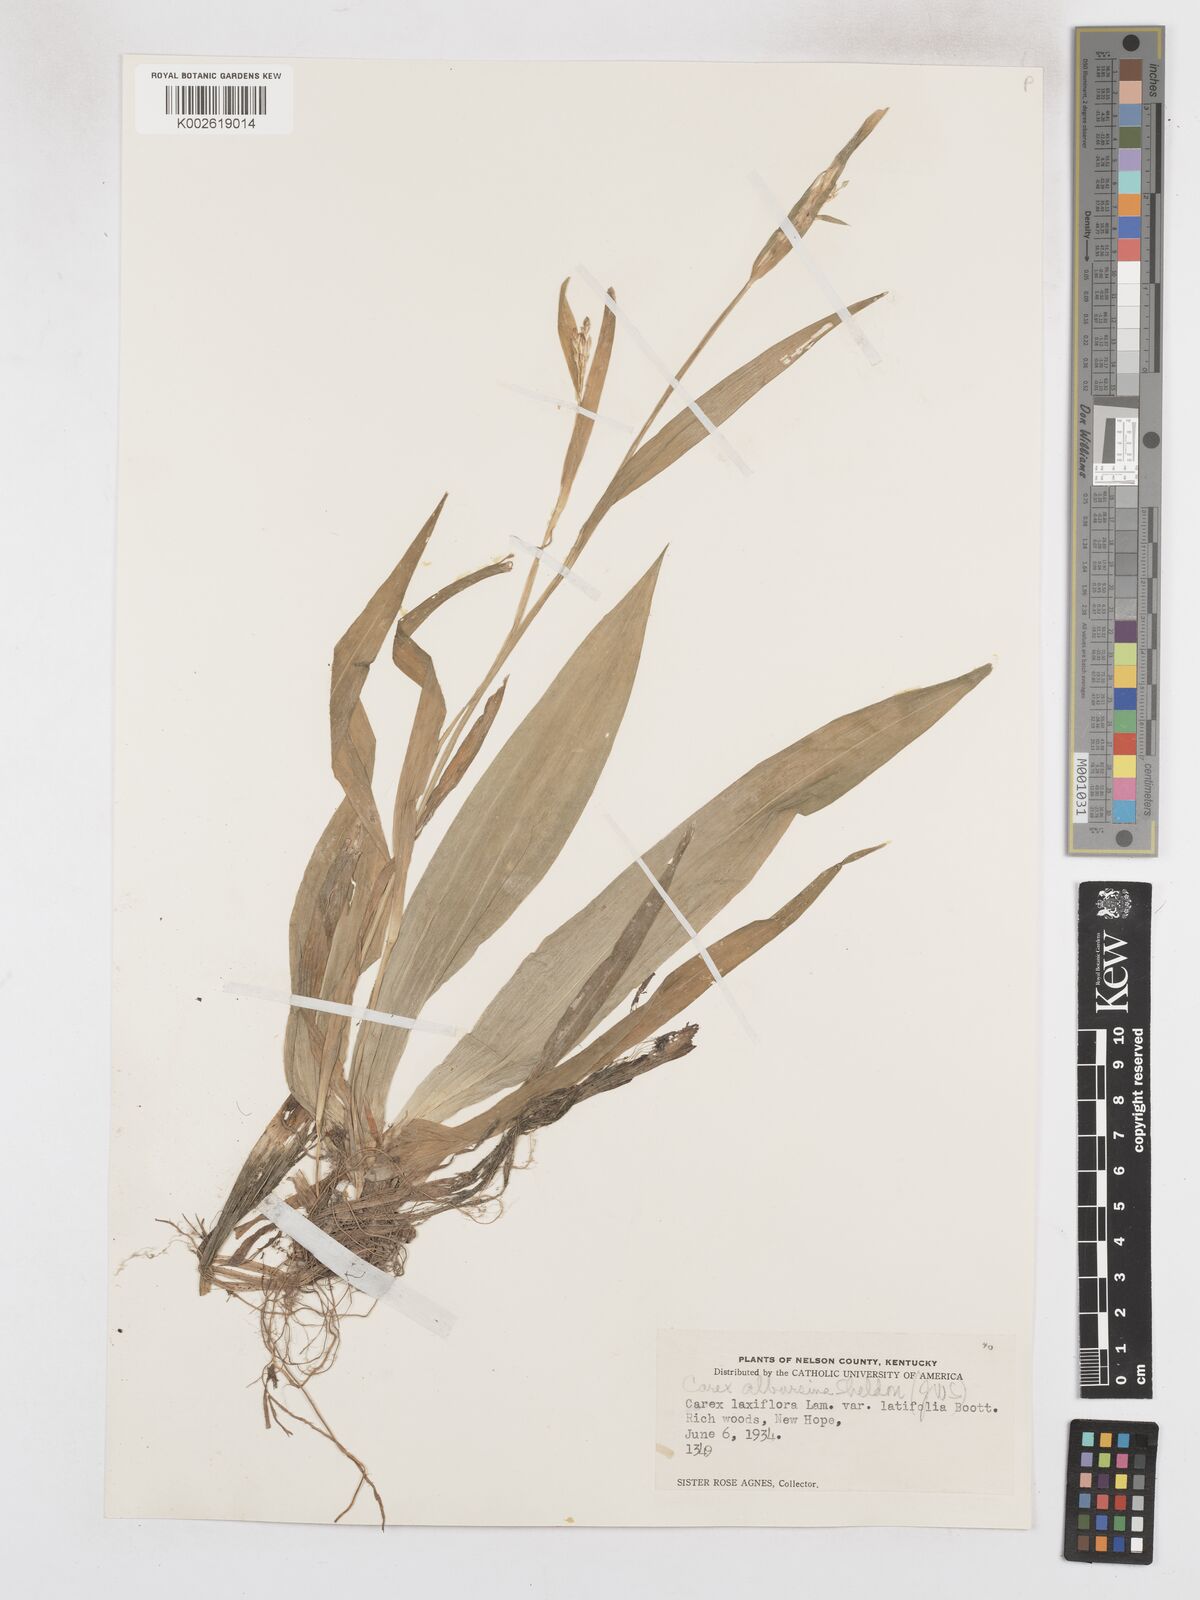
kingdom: Plantae
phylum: Tracheophyta
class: Liliopsida
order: Poales
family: Cyperaceae
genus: Carex
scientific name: Carex albursina
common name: Blunt-scale wood sedge
